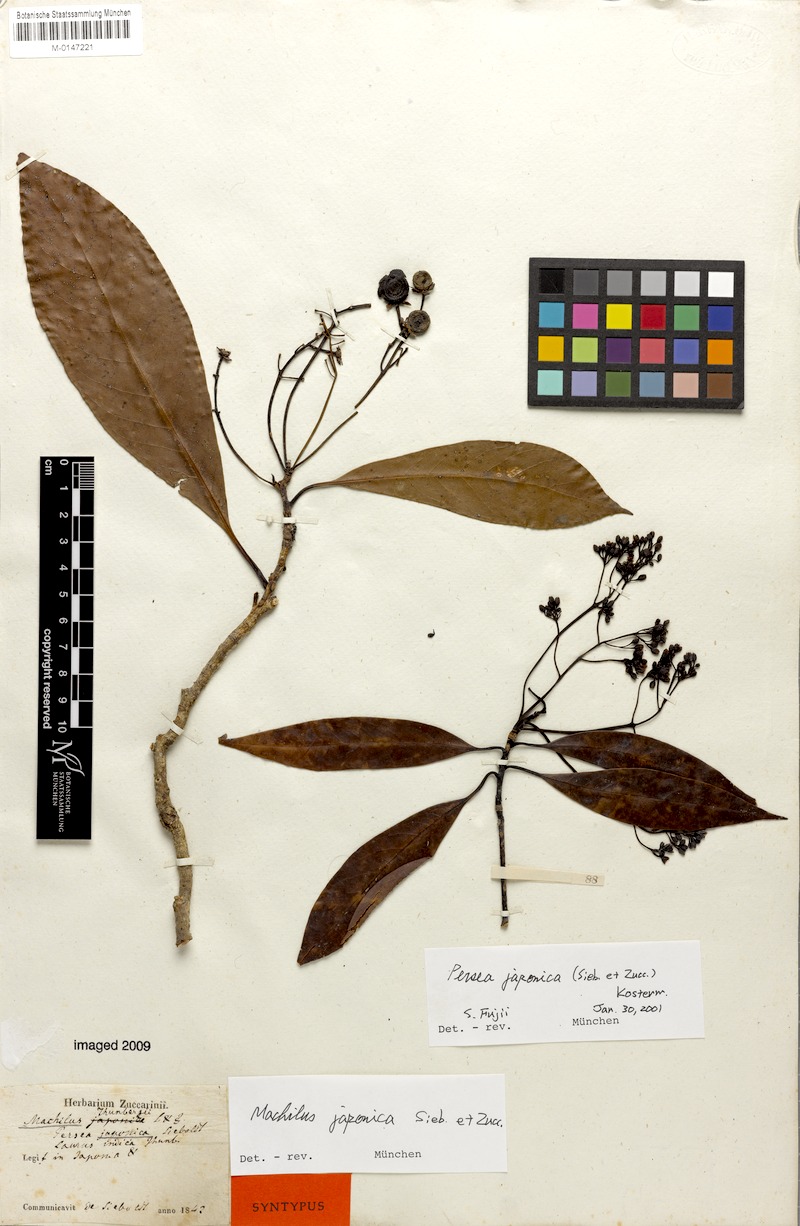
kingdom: Plantae
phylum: Tracheophyta
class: Magnoliopsida
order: Laurales
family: Lauraceae
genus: Machilus
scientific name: Machilus japonica
